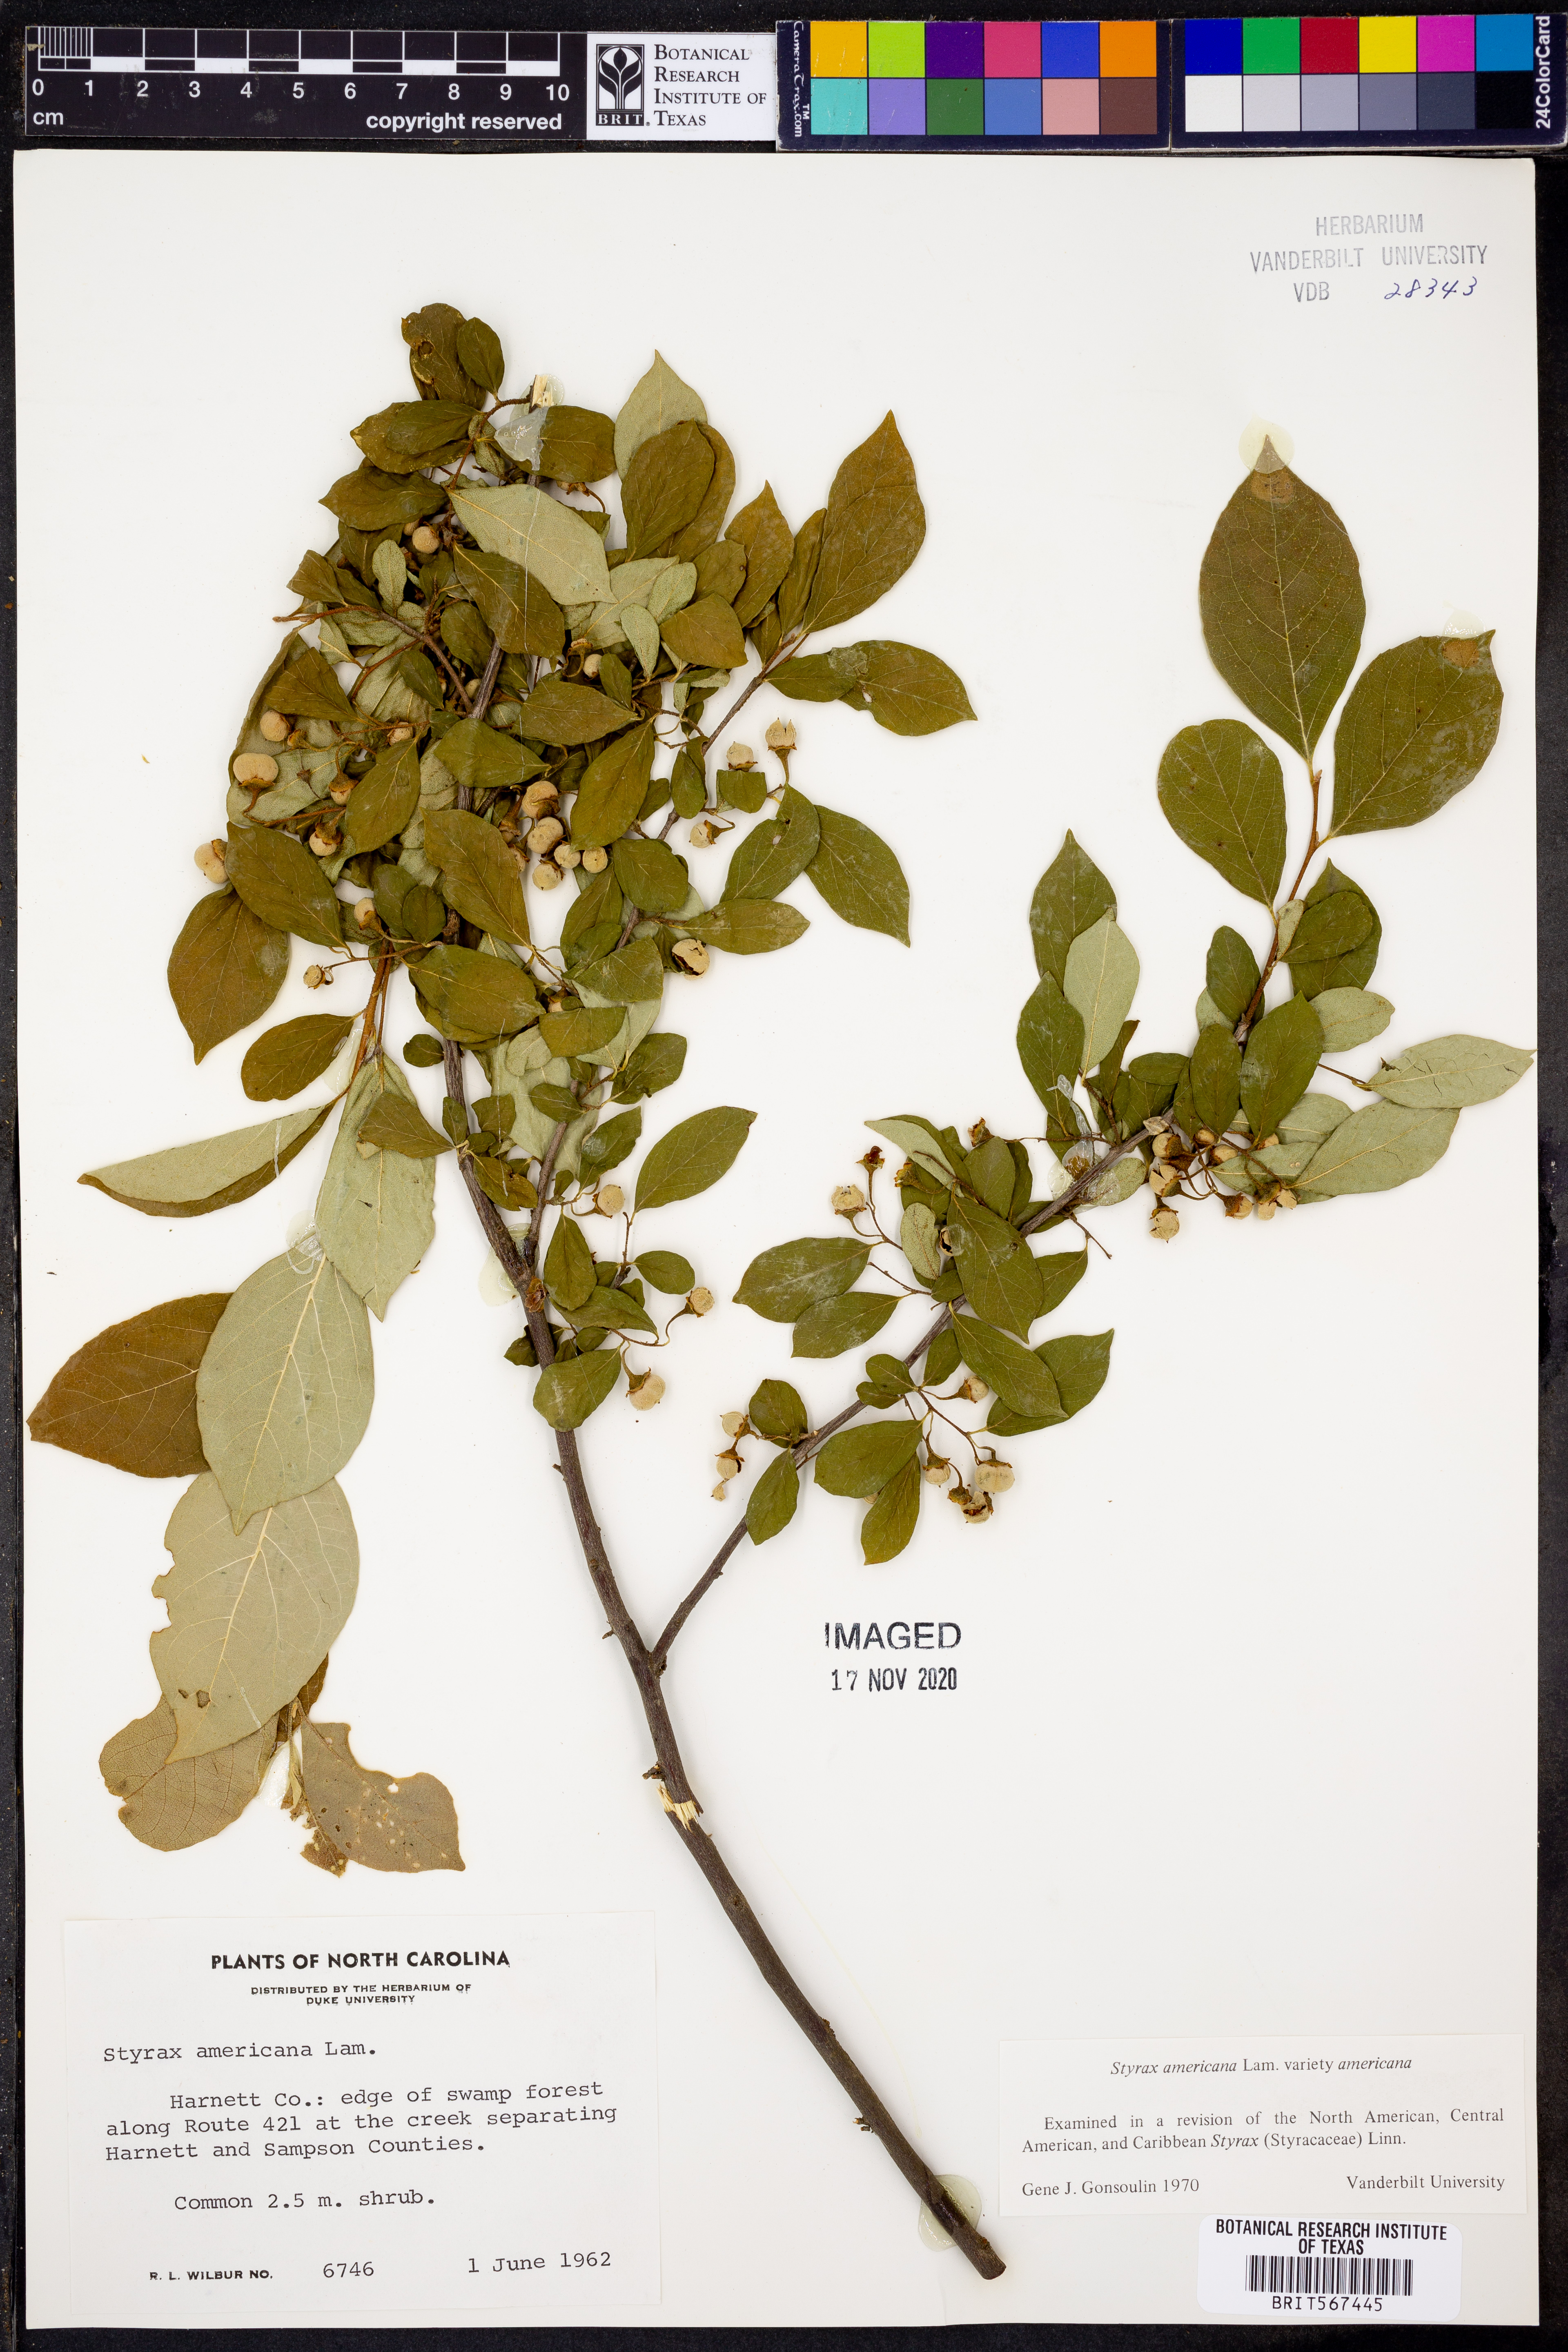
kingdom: Plantae
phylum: Tracheophyta
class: Magnoliopsida
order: Ericales
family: Styracaceae
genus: Styrax
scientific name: Styrax americanus
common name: American snowbell
